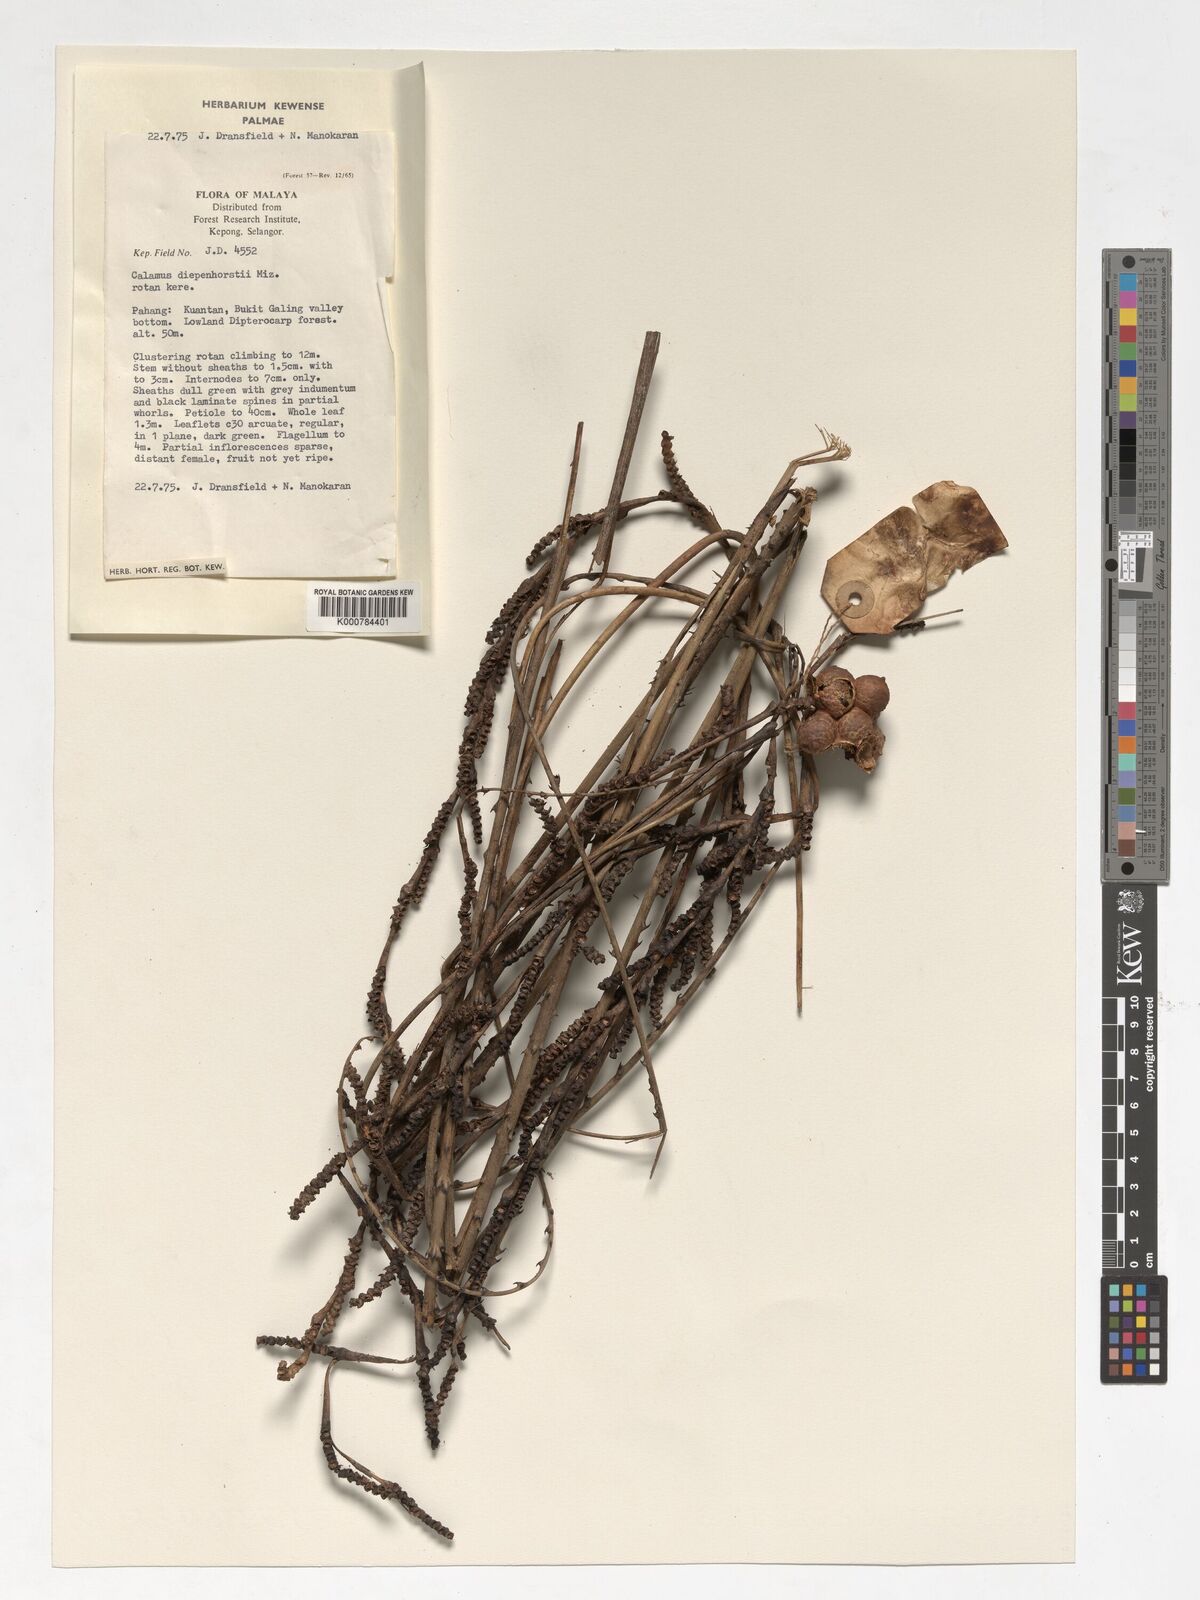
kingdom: Plantae
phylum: Tracheophyta
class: Liliopsida
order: Arecales
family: Arecaceae
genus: Calamus
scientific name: Calamus diepenhorstii
